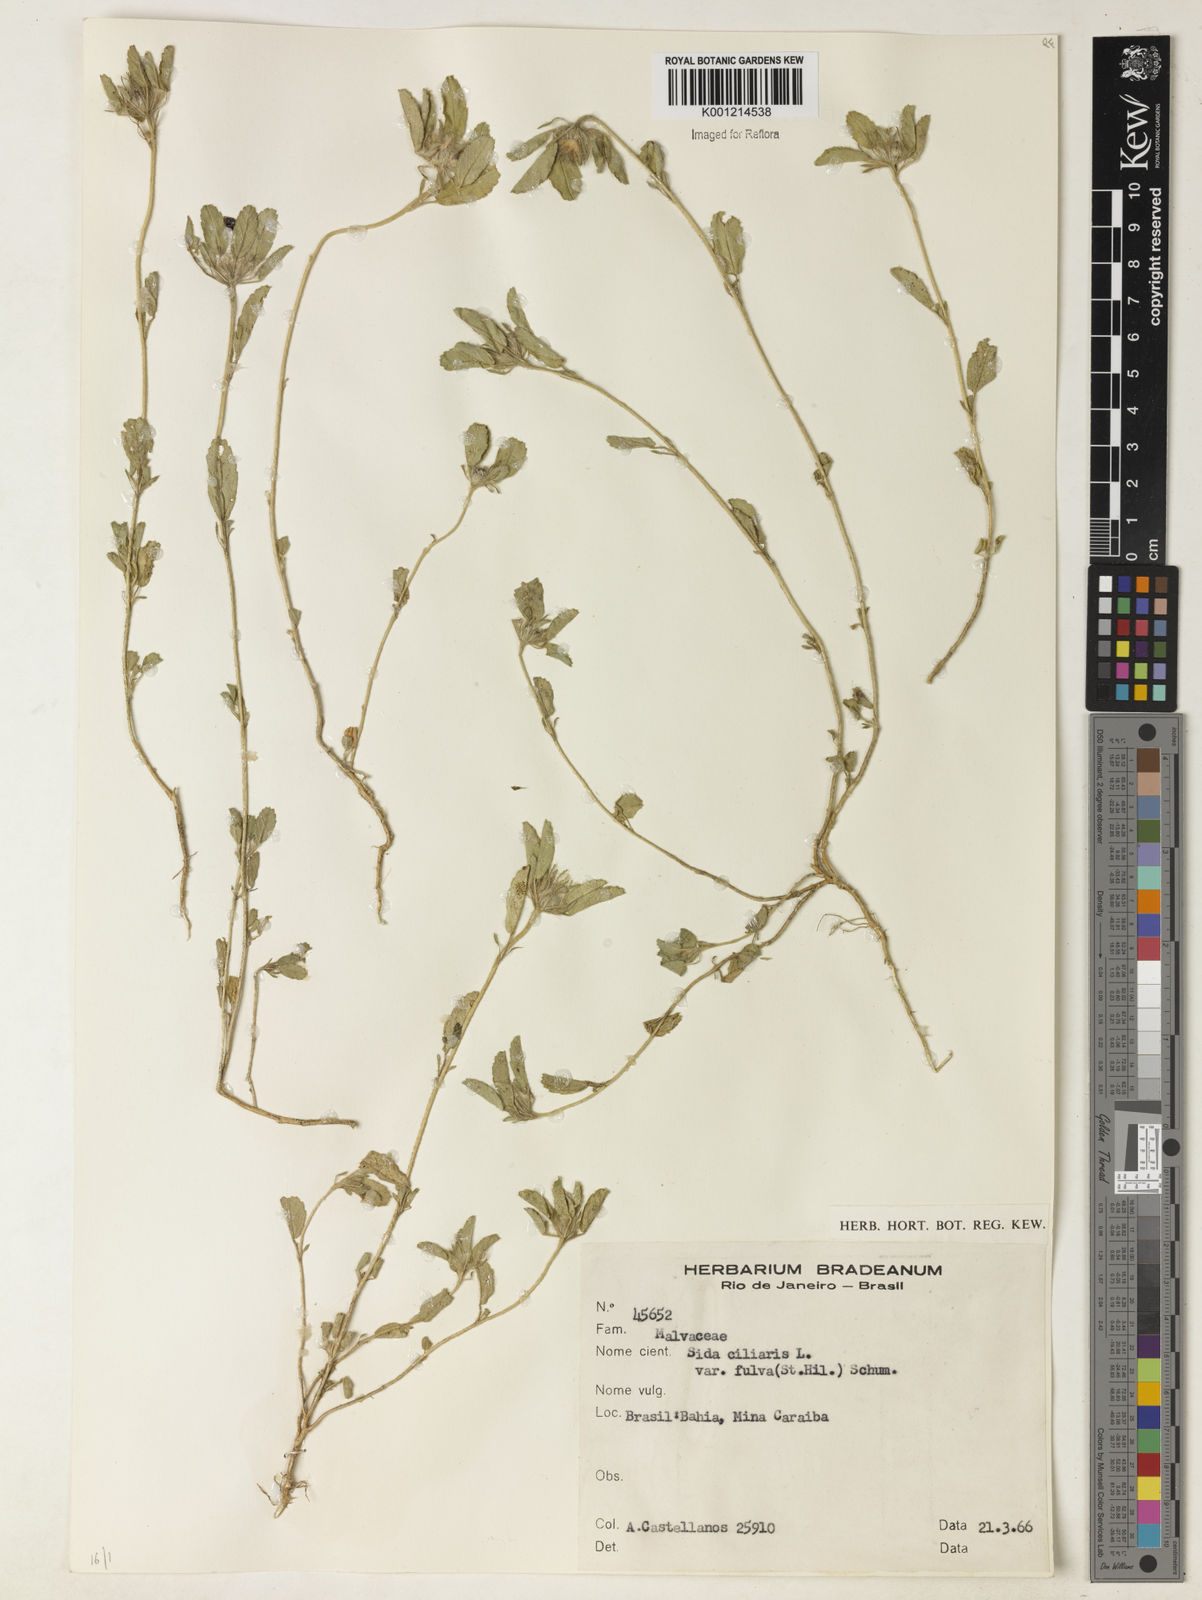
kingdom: Plantae
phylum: Tracheophyta
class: Magnoliopsida
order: Malvales
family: Malvaceae
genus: Sida
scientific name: Sida ciliaris
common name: Bracted fanpetals
